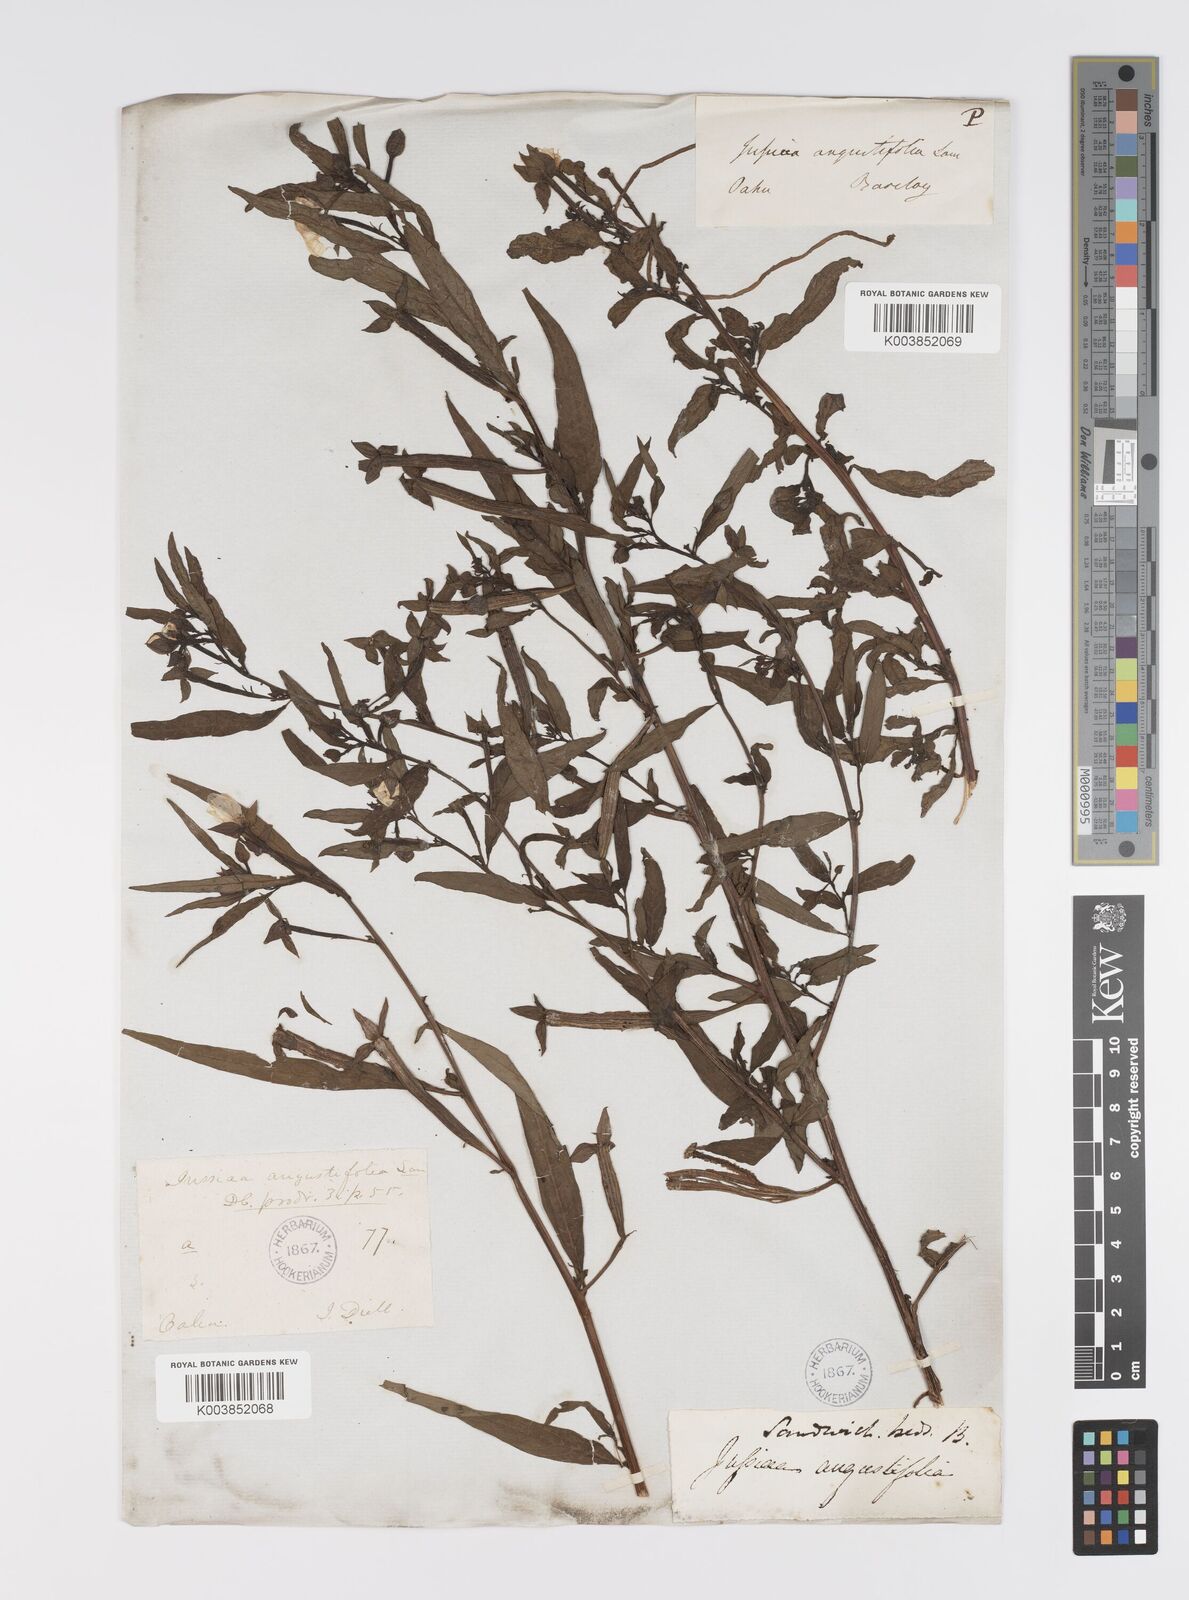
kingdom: Plantae
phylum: Tracheophyta
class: Magnoliopsida
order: Myrtales
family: Onagraceae
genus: Ludwigia
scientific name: Ludwigia octovalvis
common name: Water-primrose
